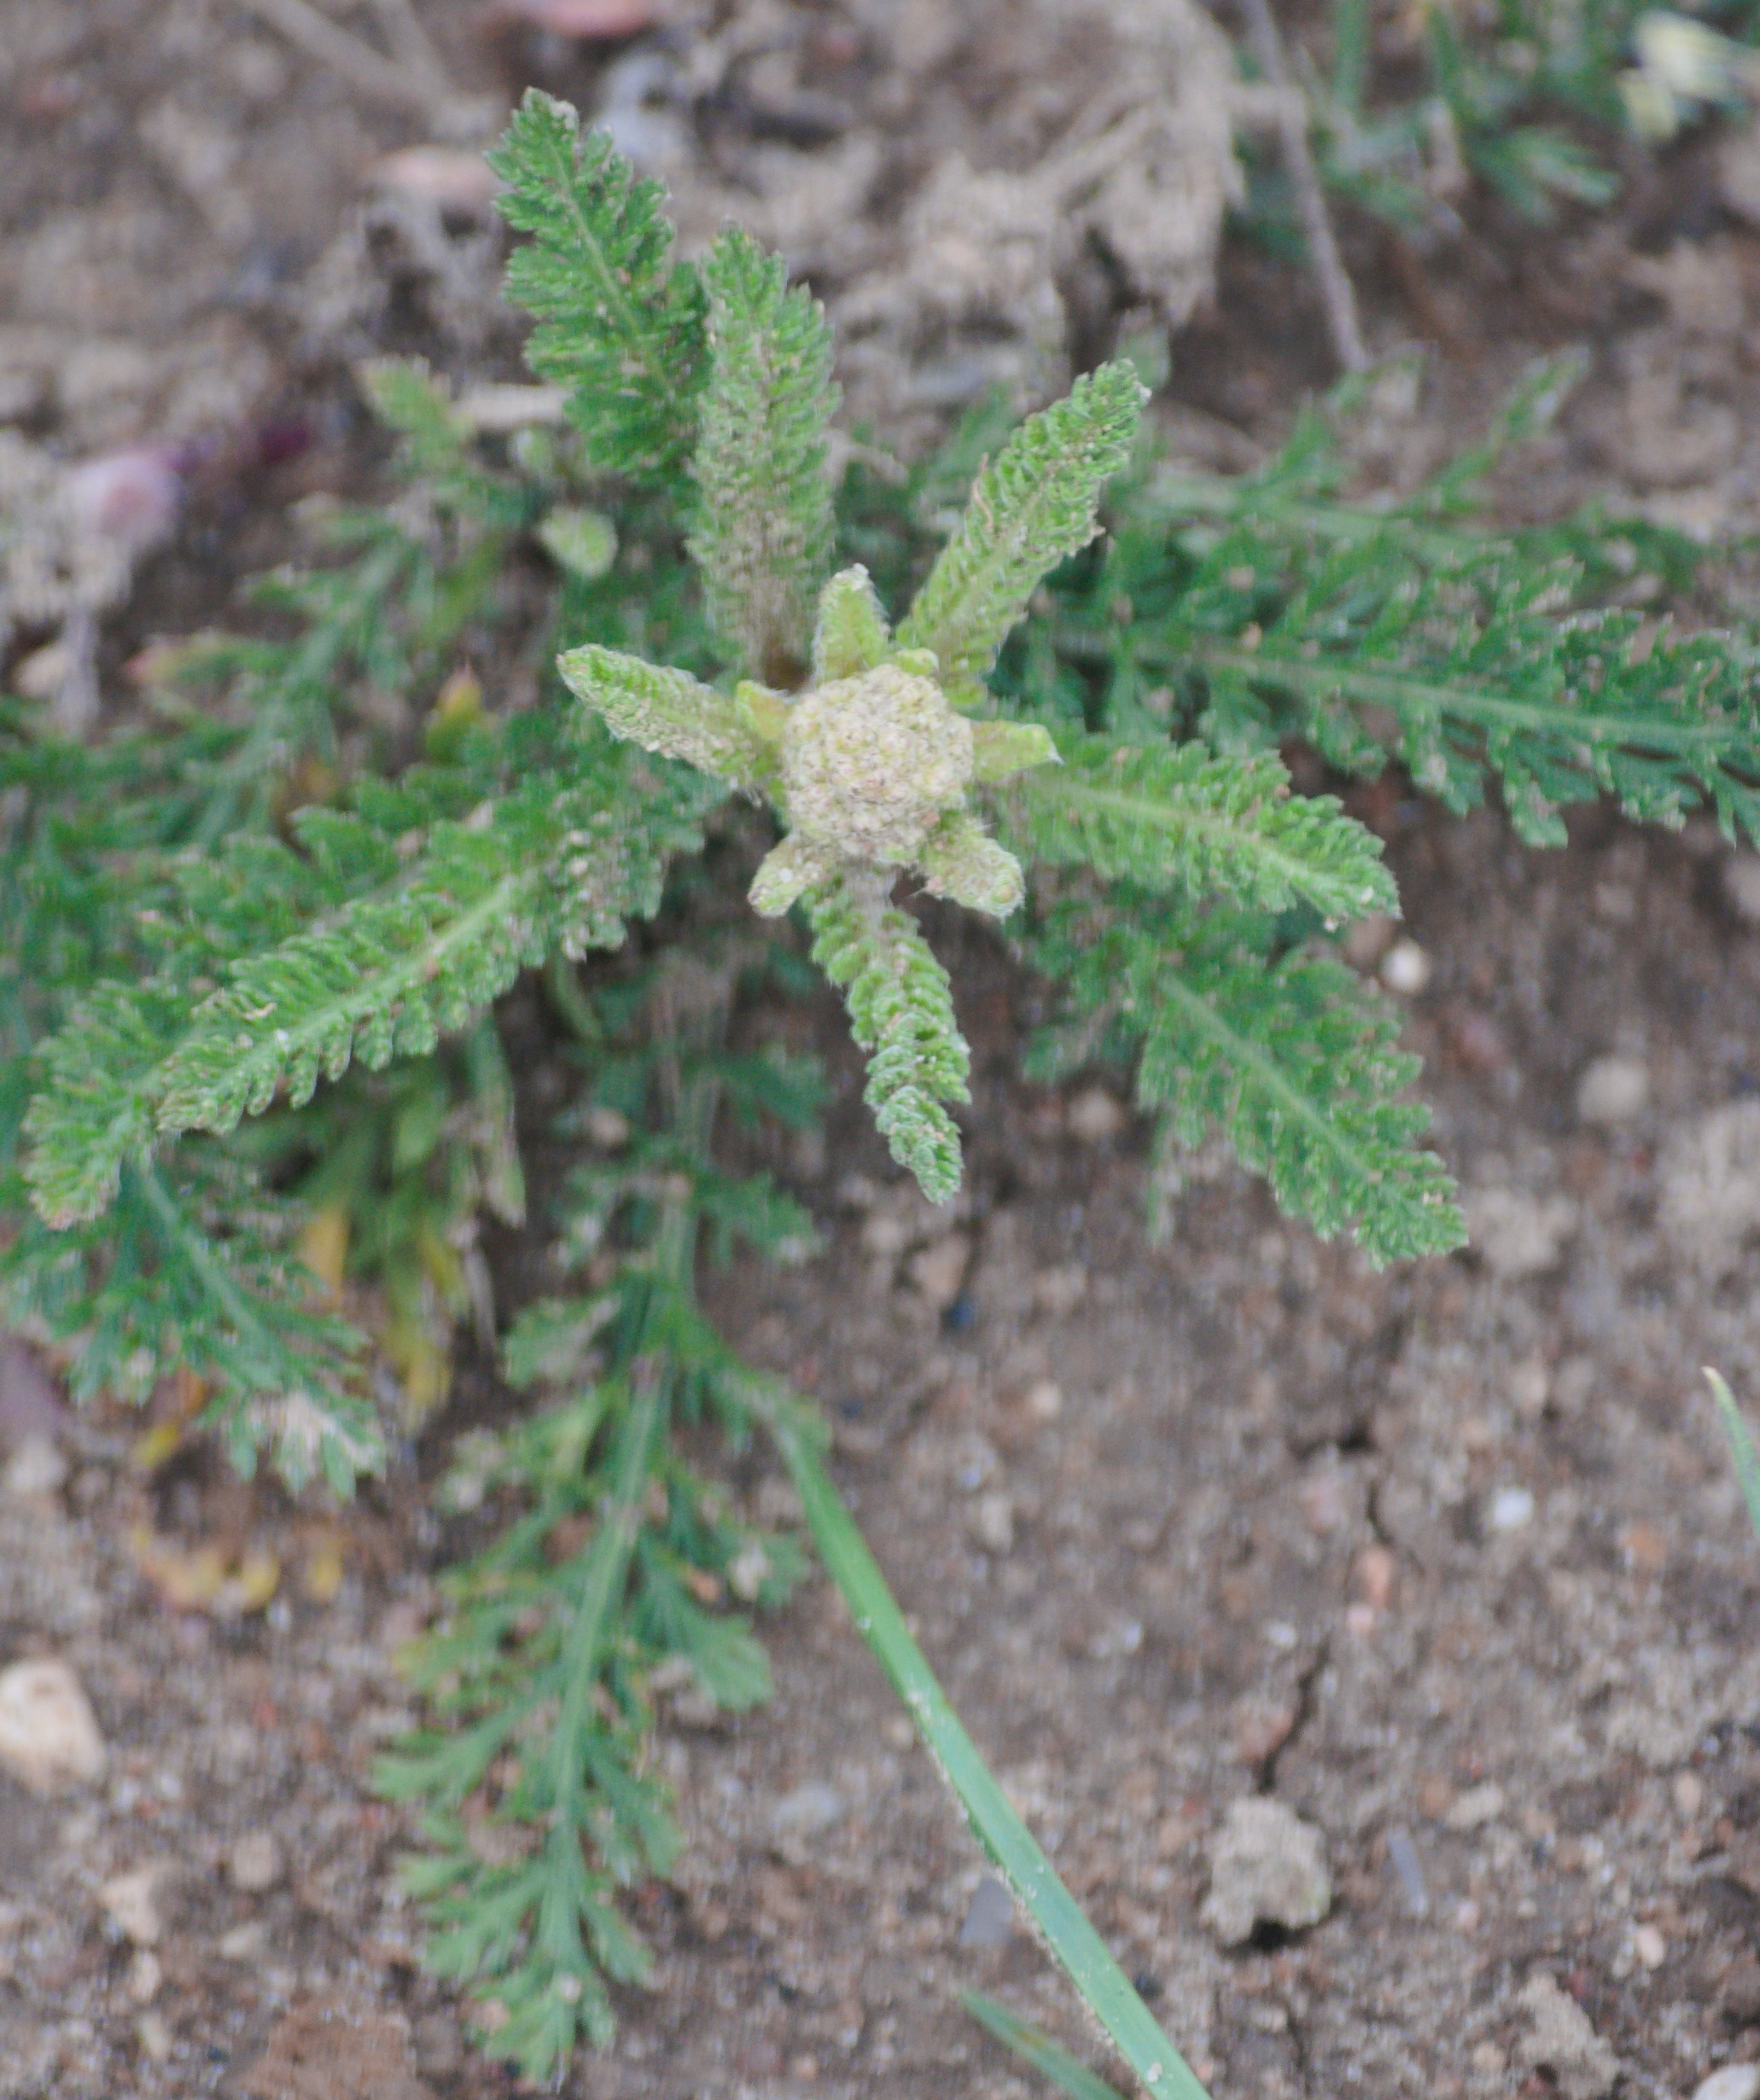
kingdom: Plantae
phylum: Tracheophyta
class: Magnoliopsida
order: Asterales
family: Asteraceae
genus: Achillea
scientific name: Achillea millefolium
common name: Almindelig røllike
